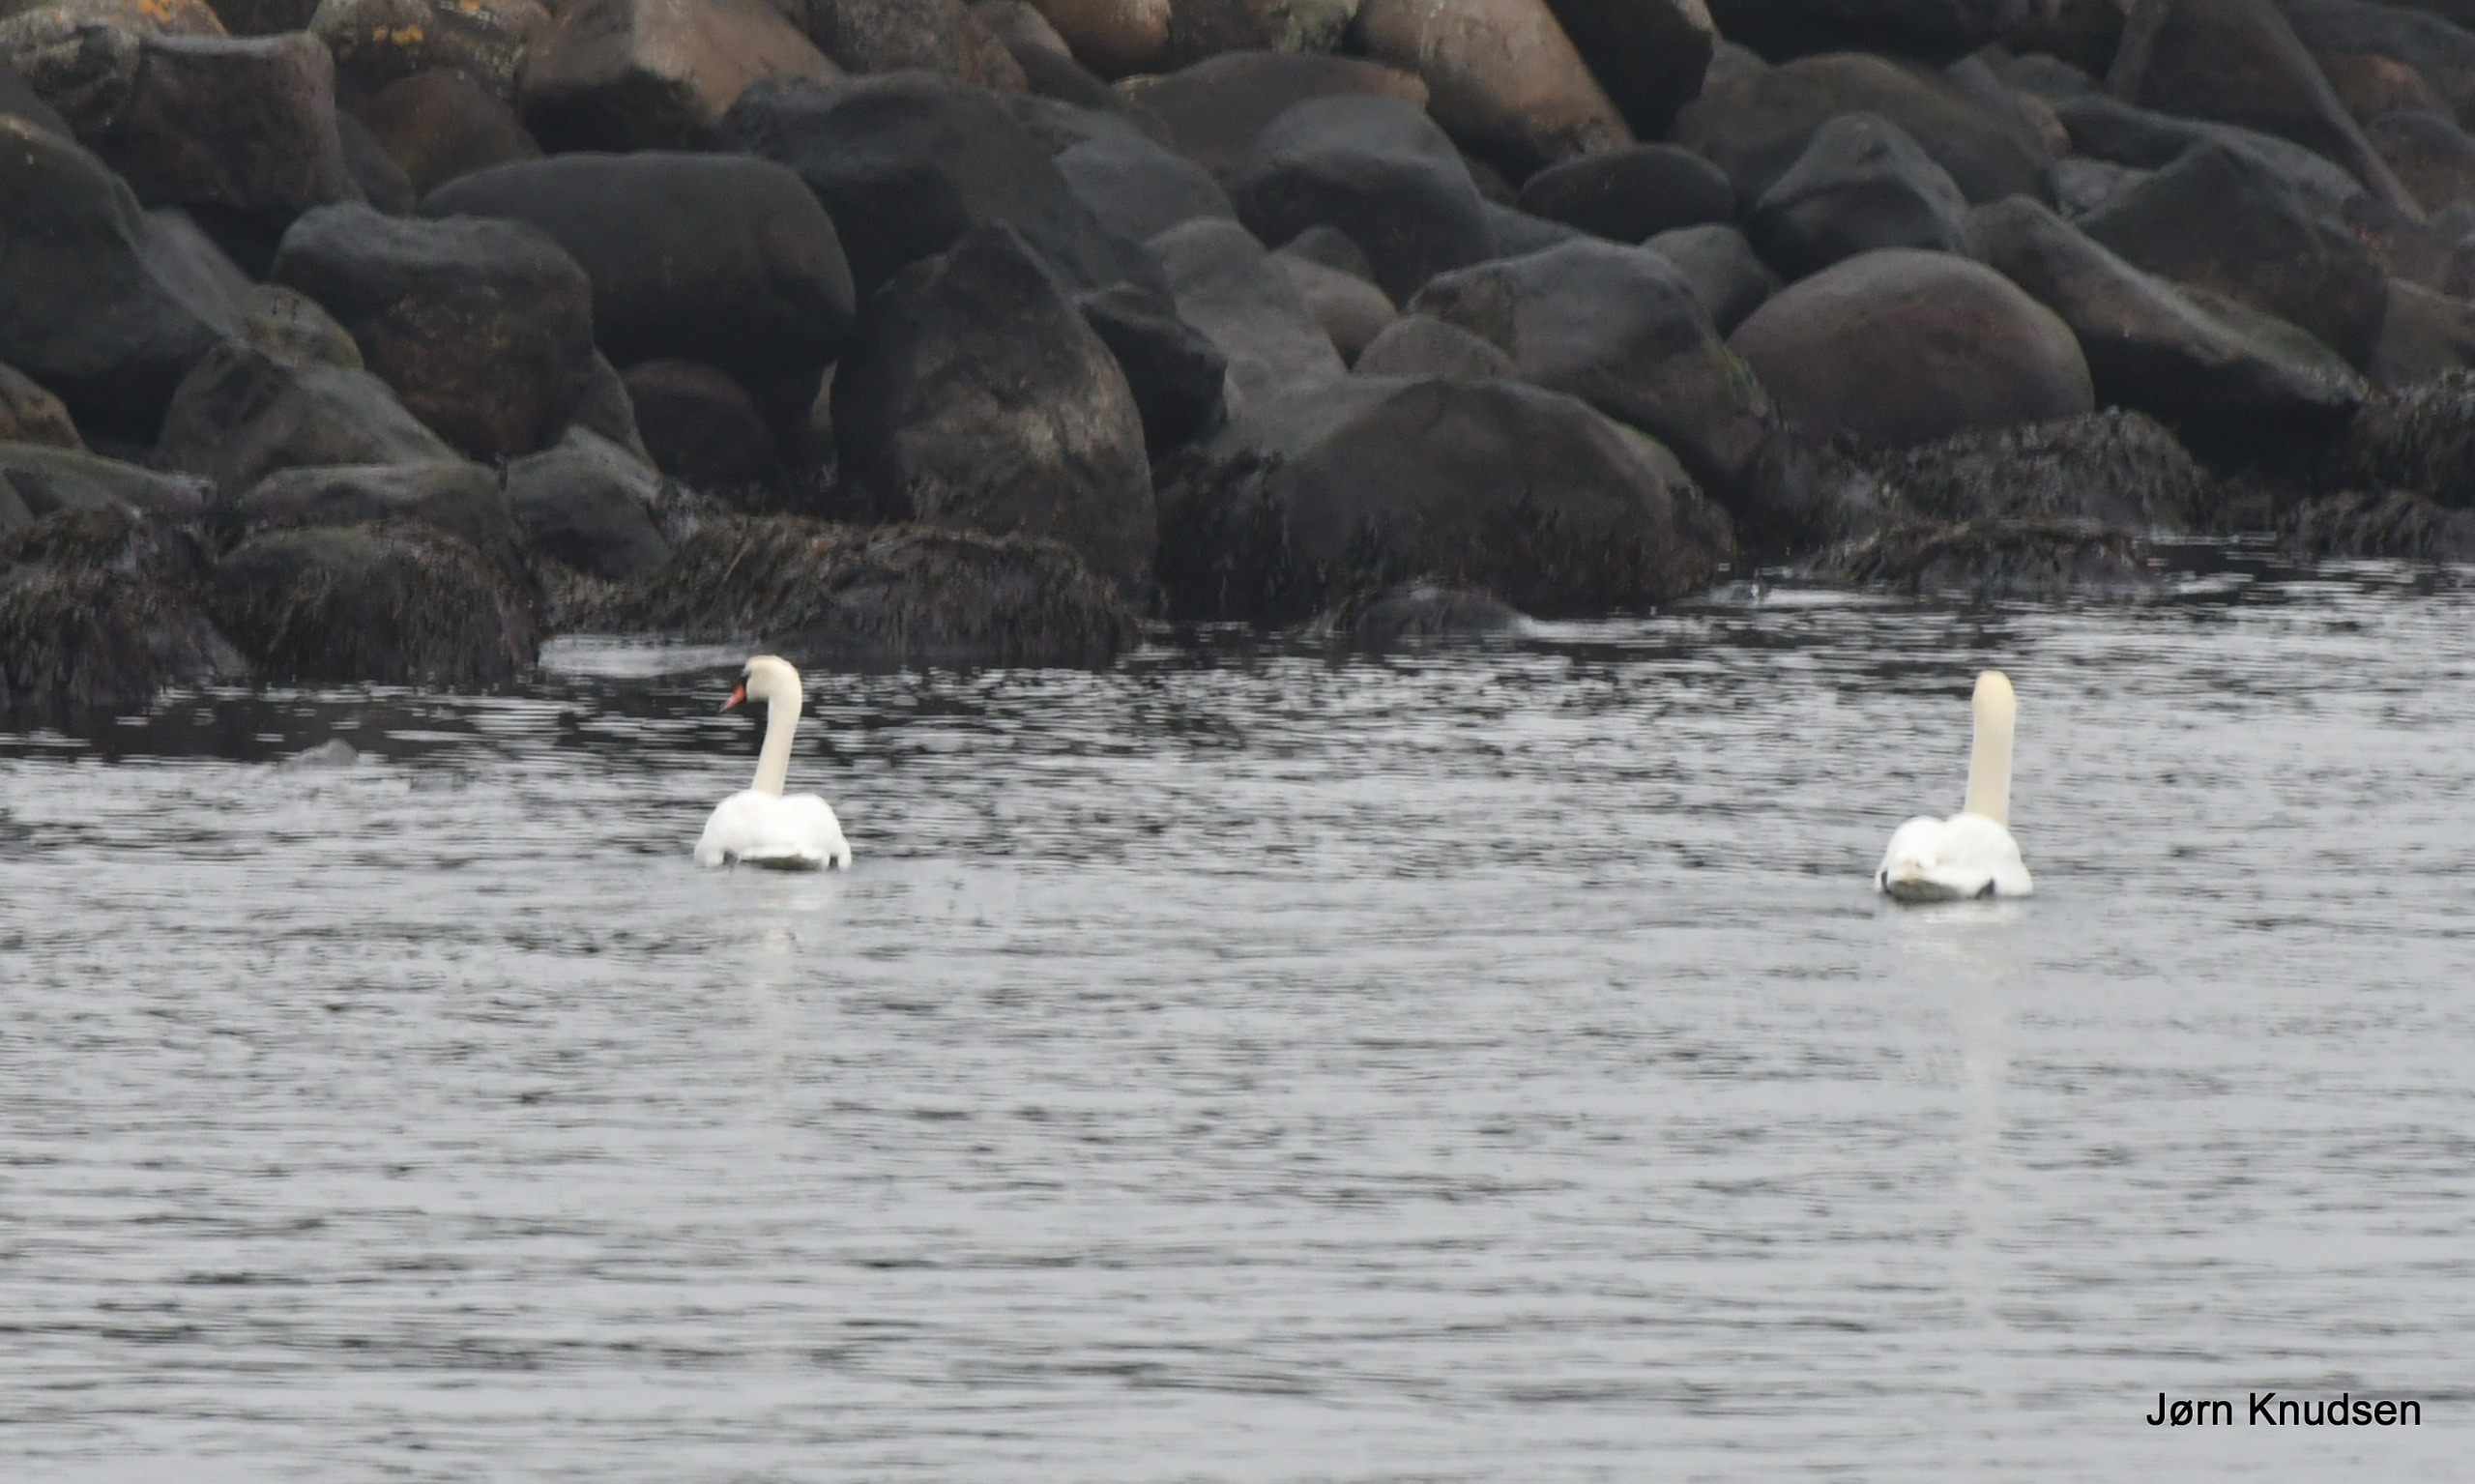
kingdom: Animalia
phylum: Chordata
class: Aves
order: Anseriformes
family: Anatidae
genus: Cygnus
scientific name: Cygnus olor
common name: Knopsvane
